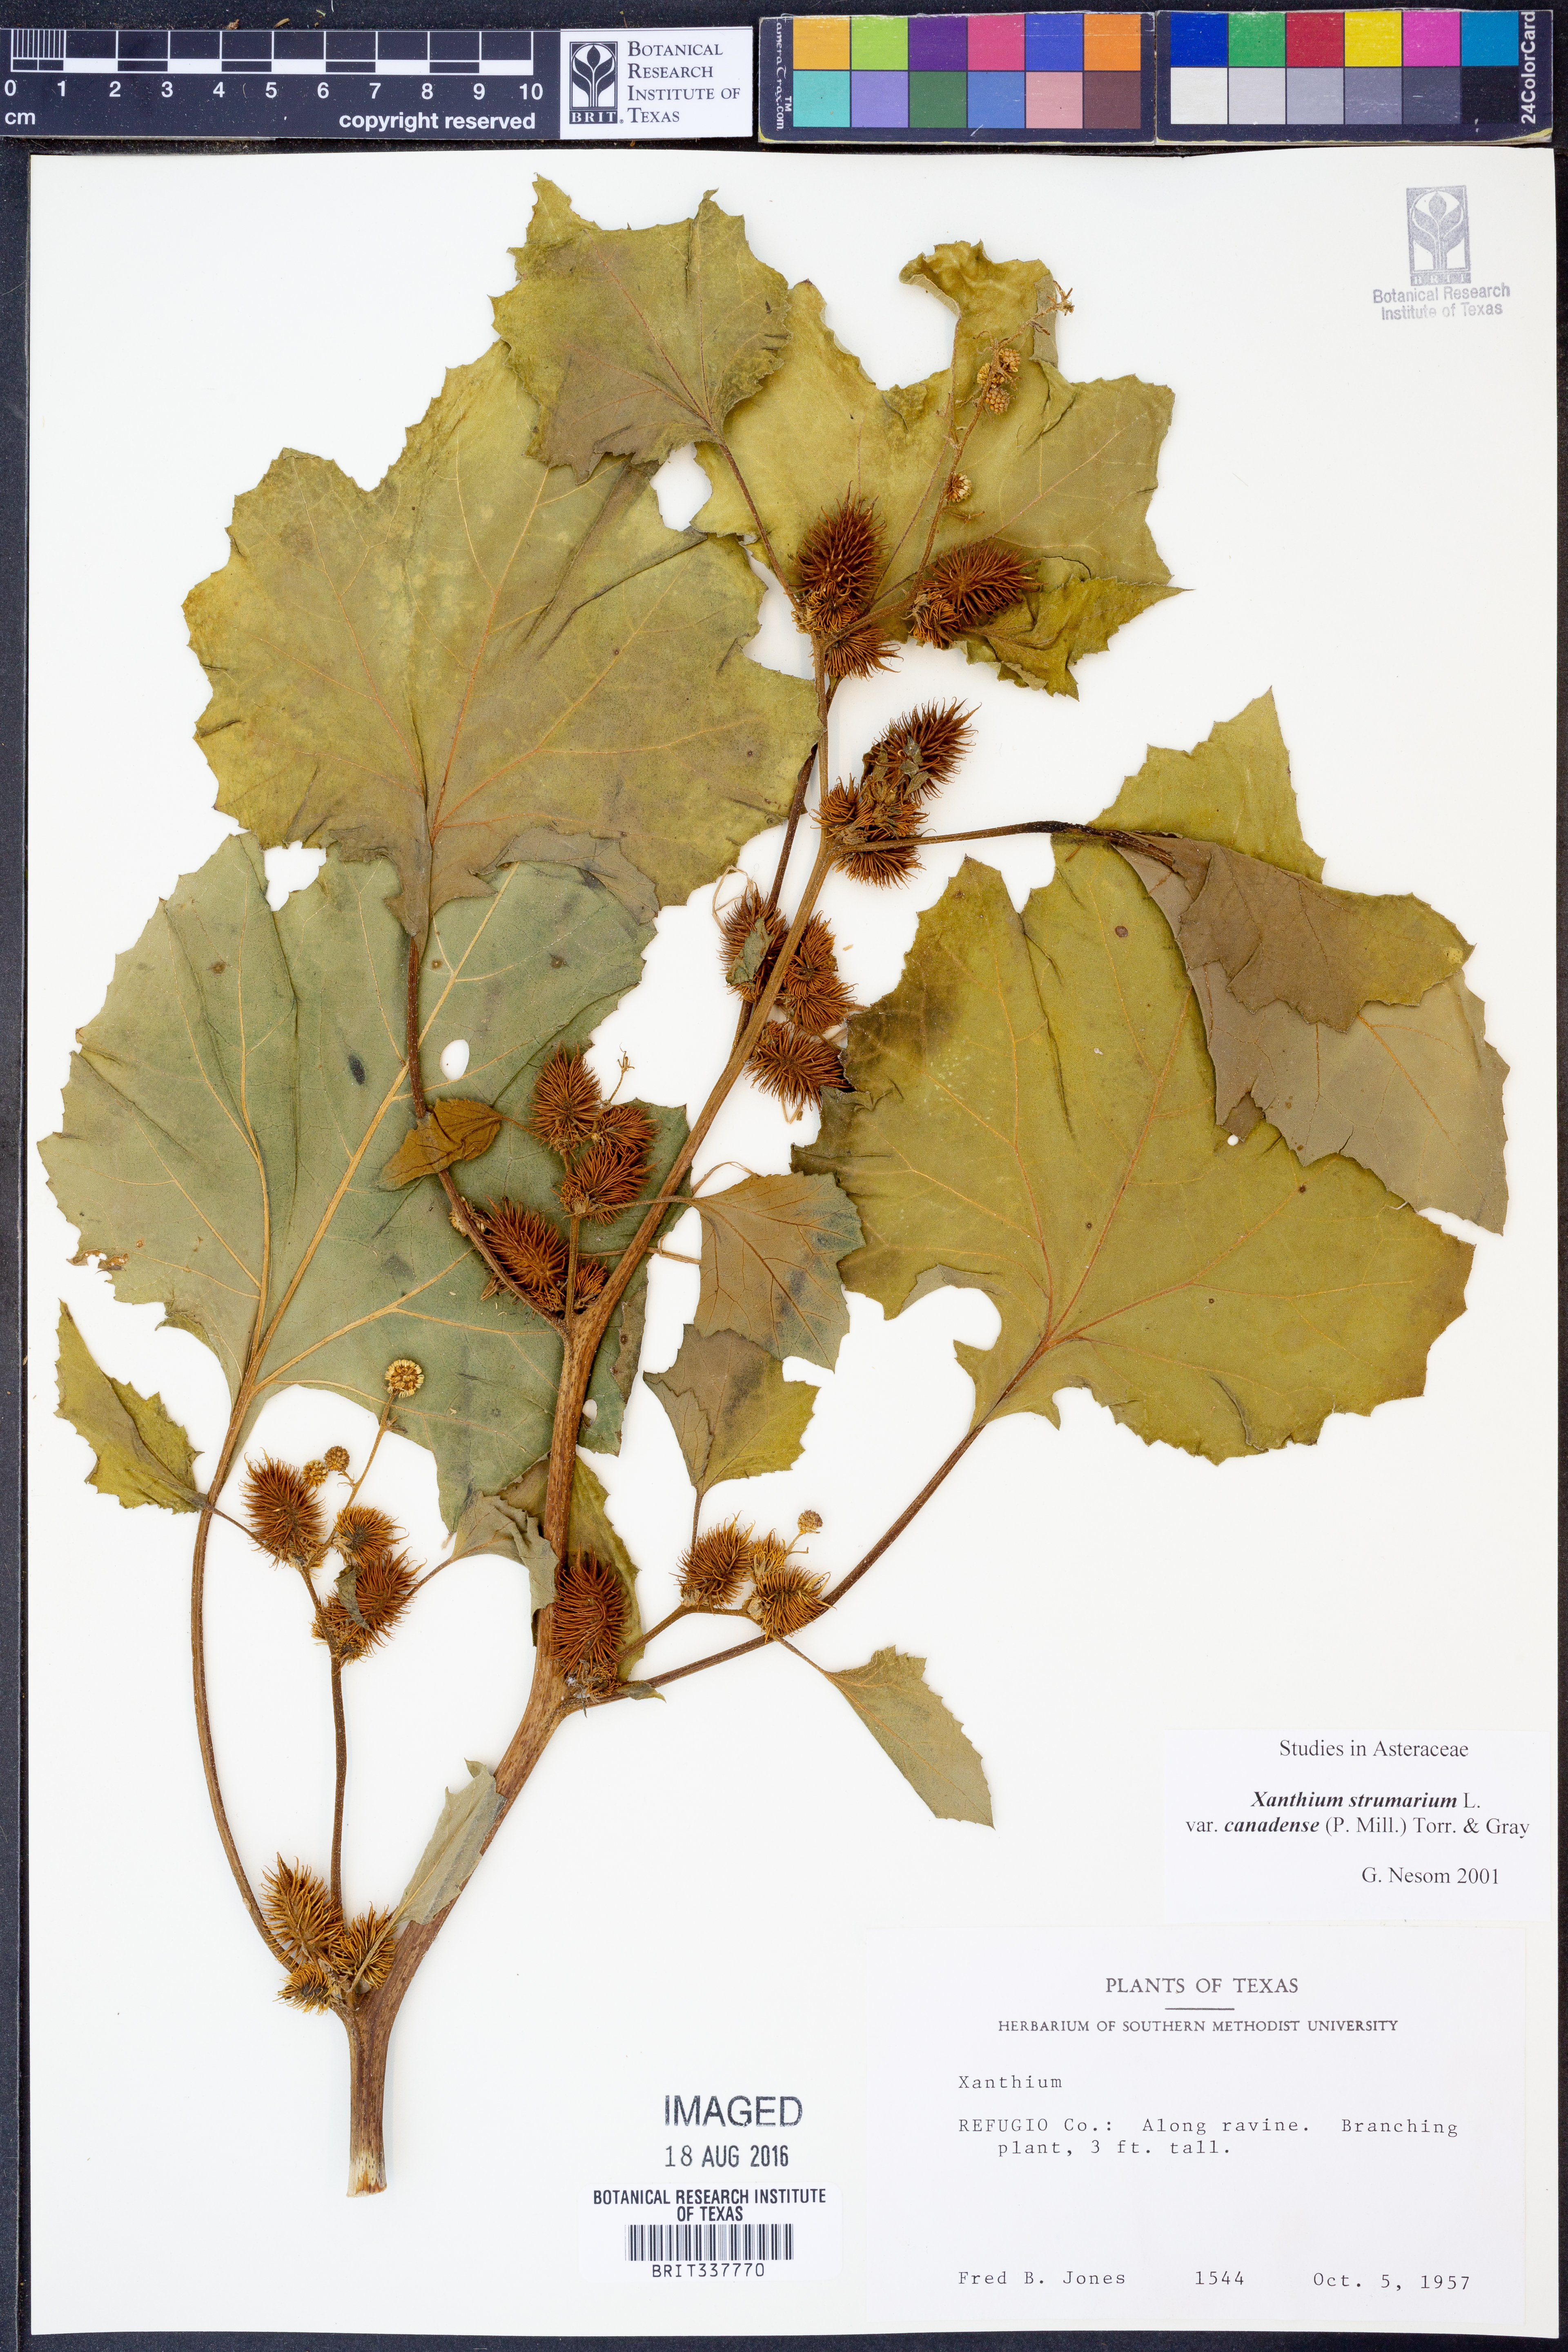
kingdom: Plantae
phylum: Tracheophyta
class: Magnoliopsida
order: Asterales
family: Asteraceae
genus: Xanthium
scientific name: Xanthium orientale
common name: Californian burr
